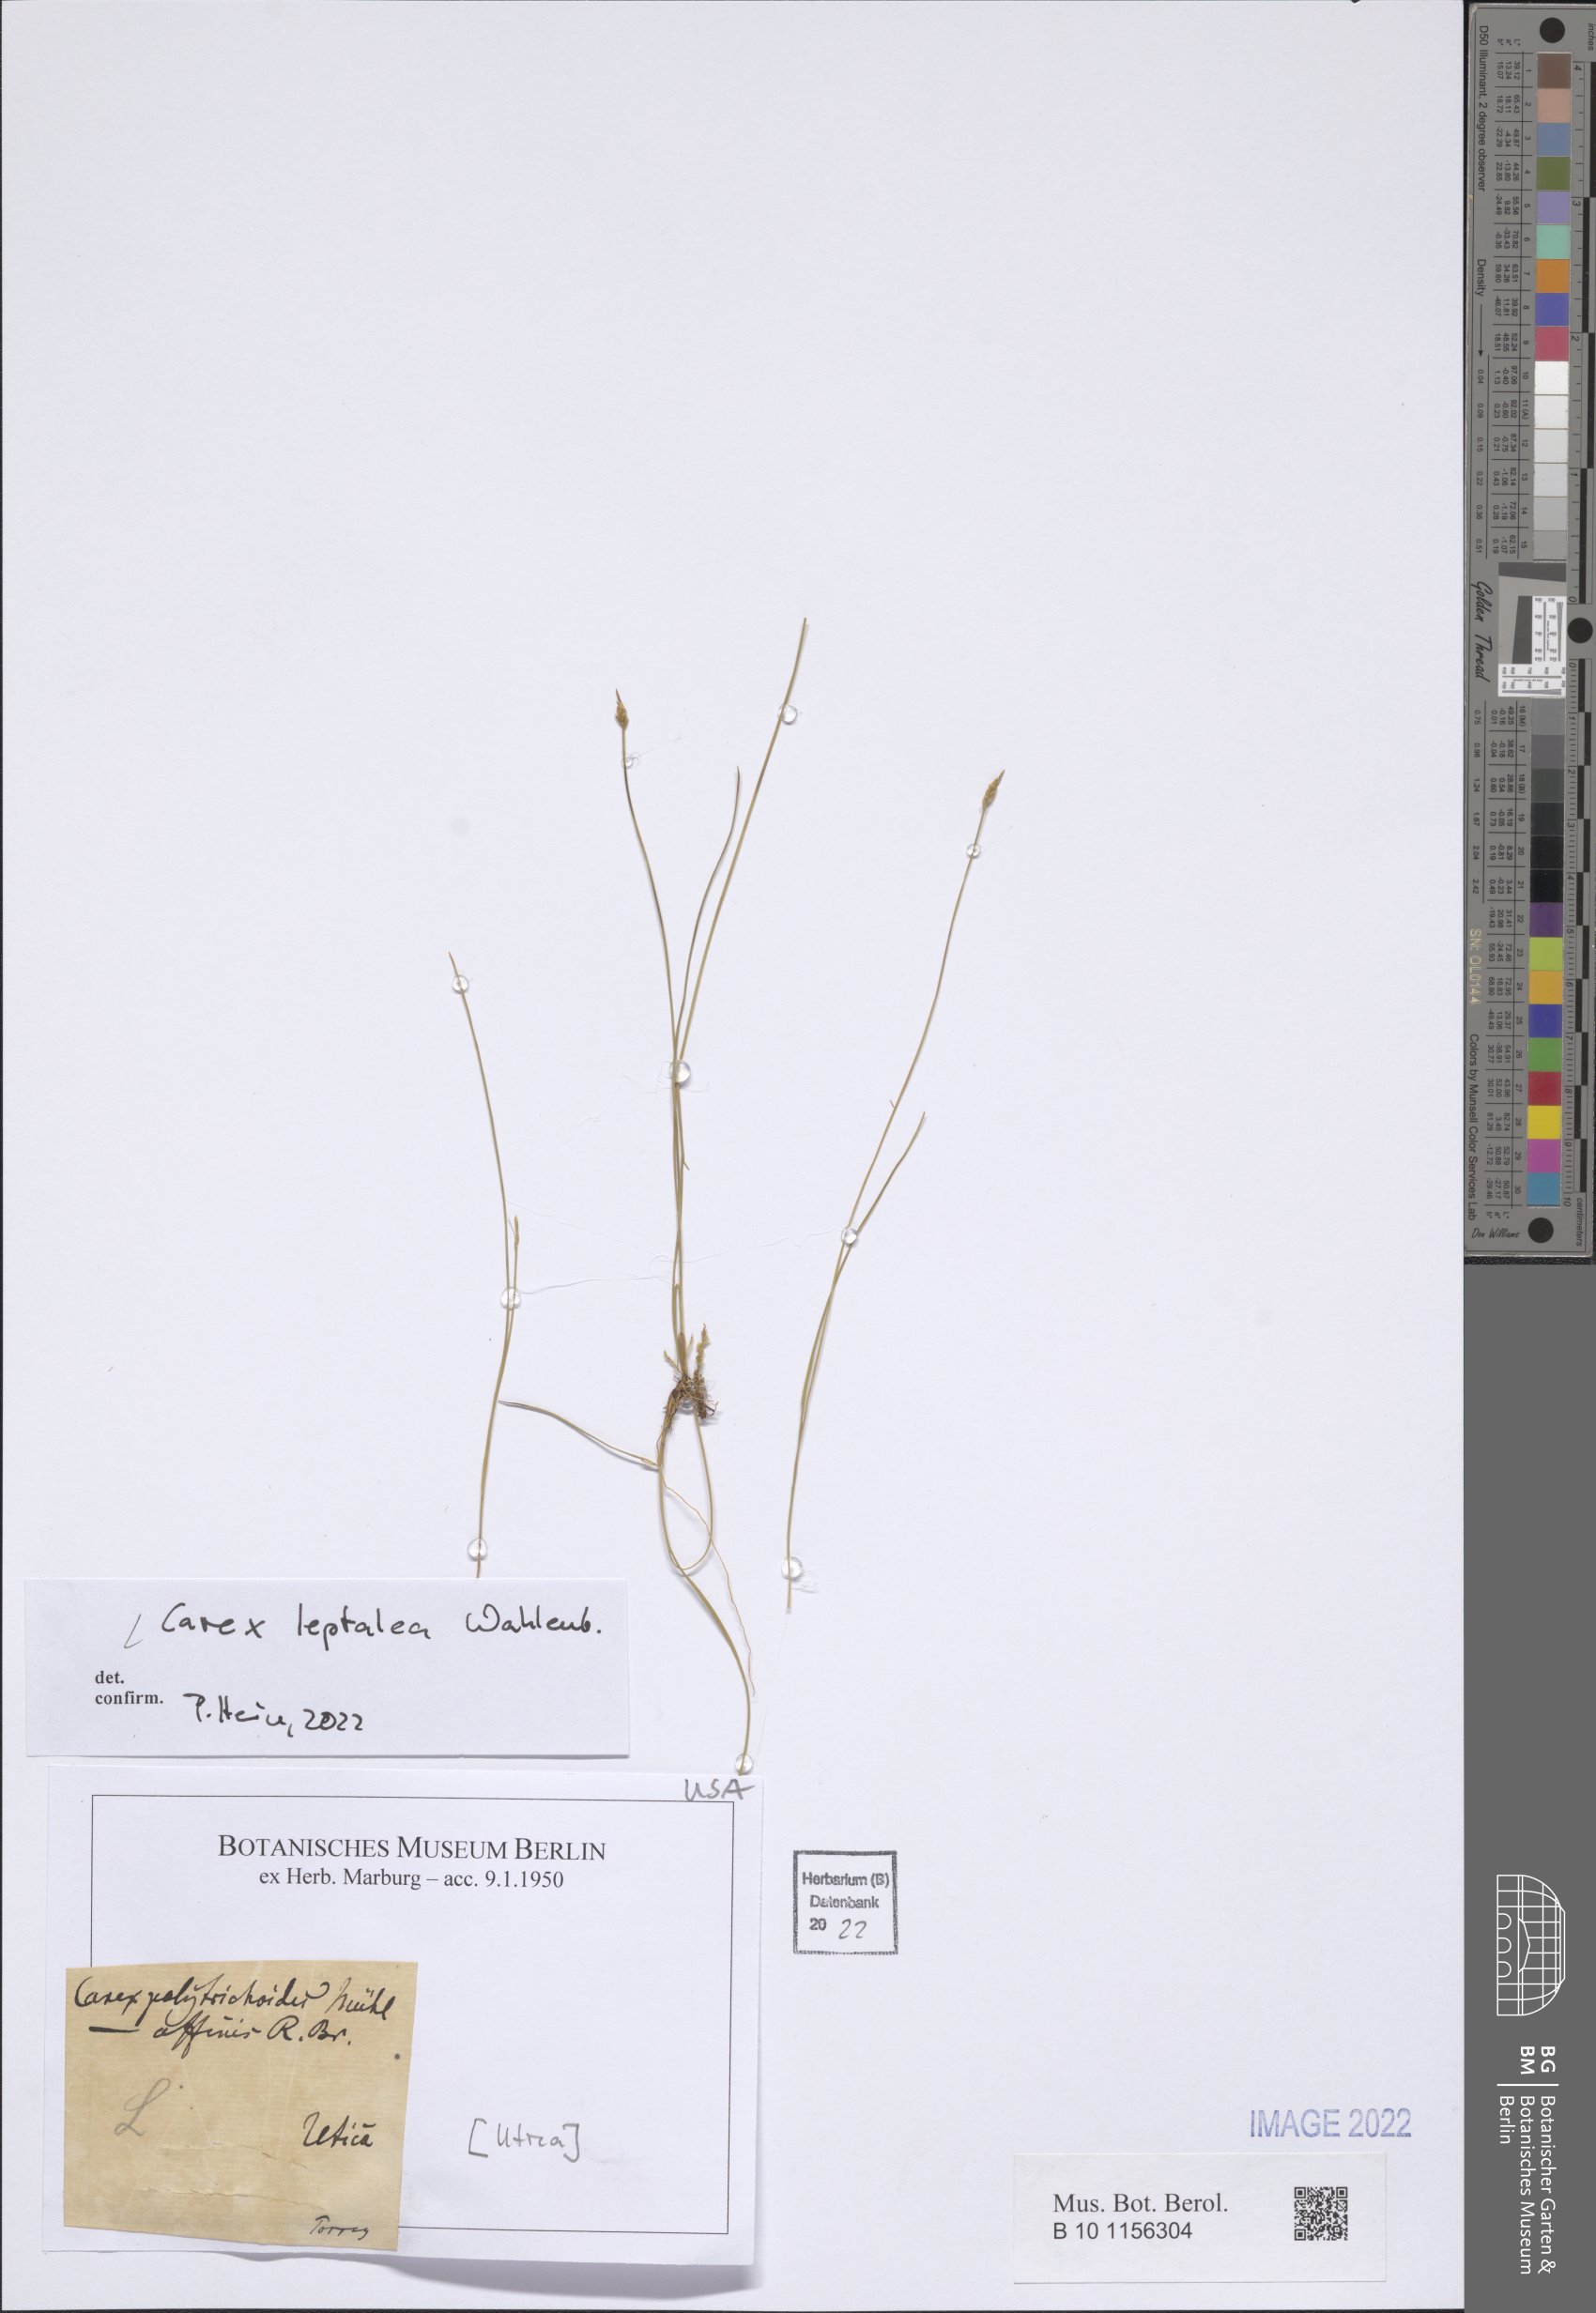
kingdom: Plantae
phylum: Tracheophyta
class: Liliopsida
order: Poales
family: Cyperaceae
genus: Carex
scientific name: Carex leptalea
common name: Bristly-stalked sedge
